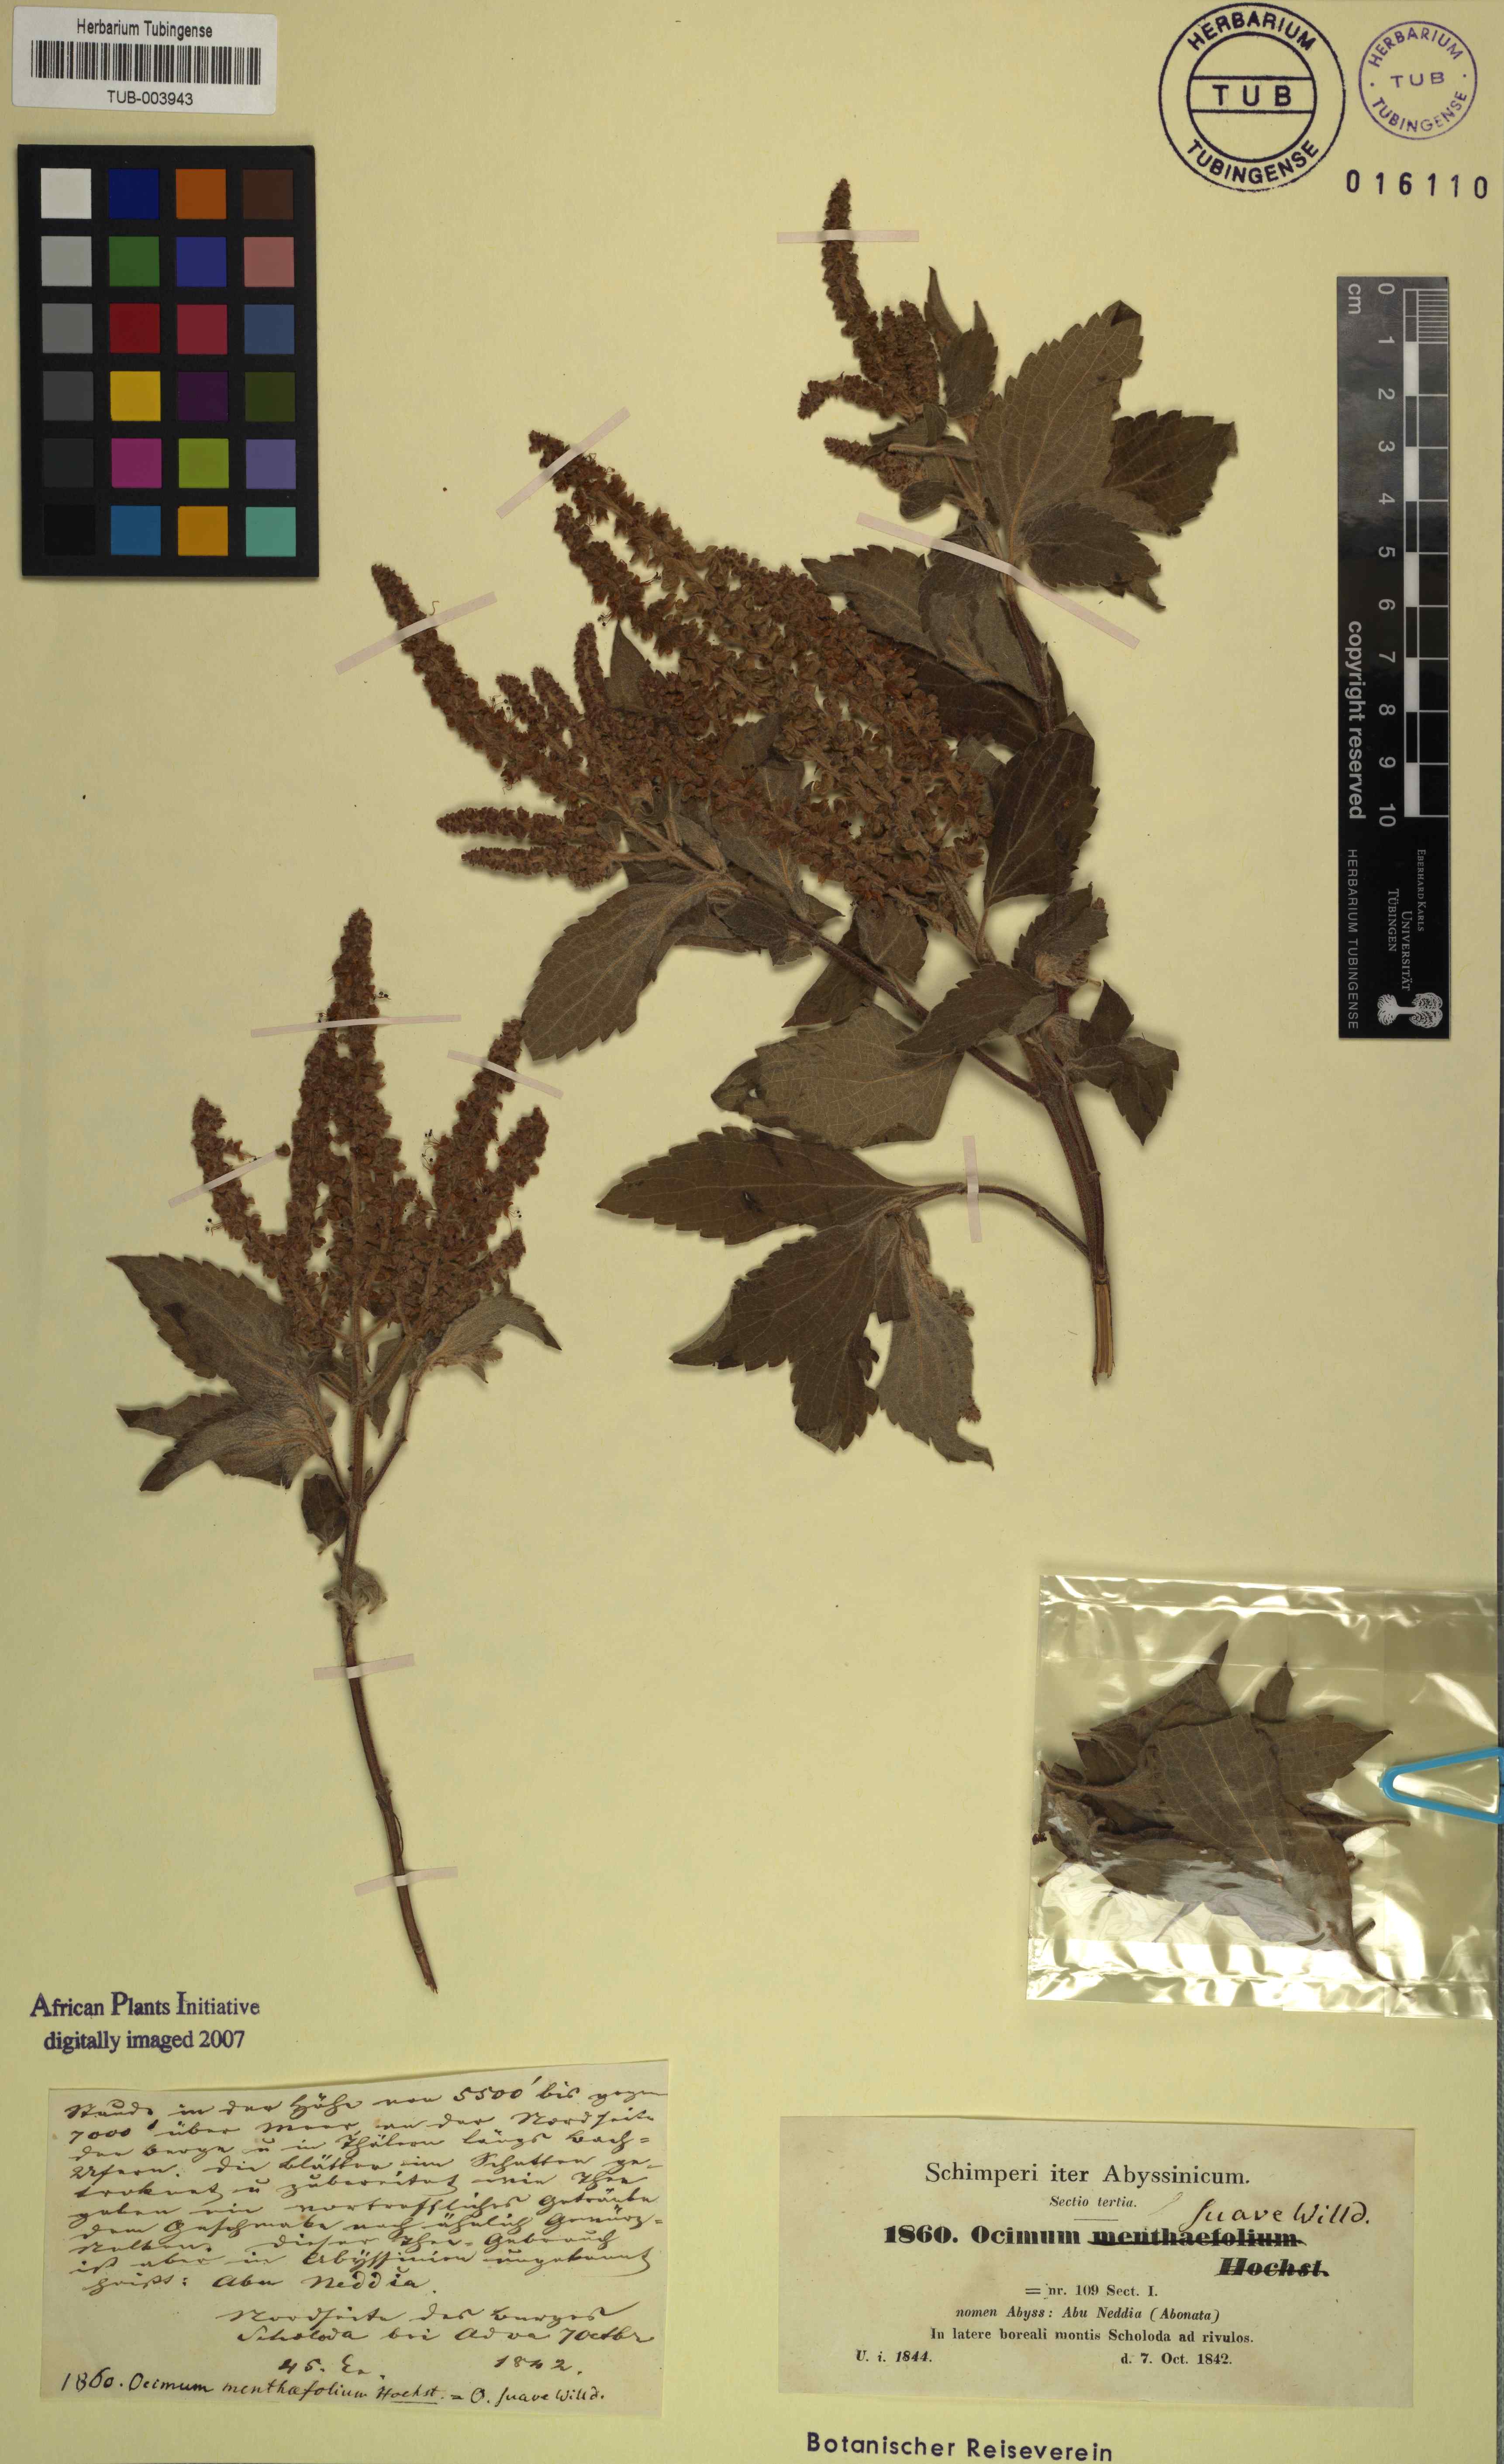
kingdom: Plantae
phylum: Tracheophyta
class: Magnoliopsida
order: Lamiales
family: Lamiaceae
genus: Ocimum
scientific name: Ocimum gratissimum
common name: African basil
